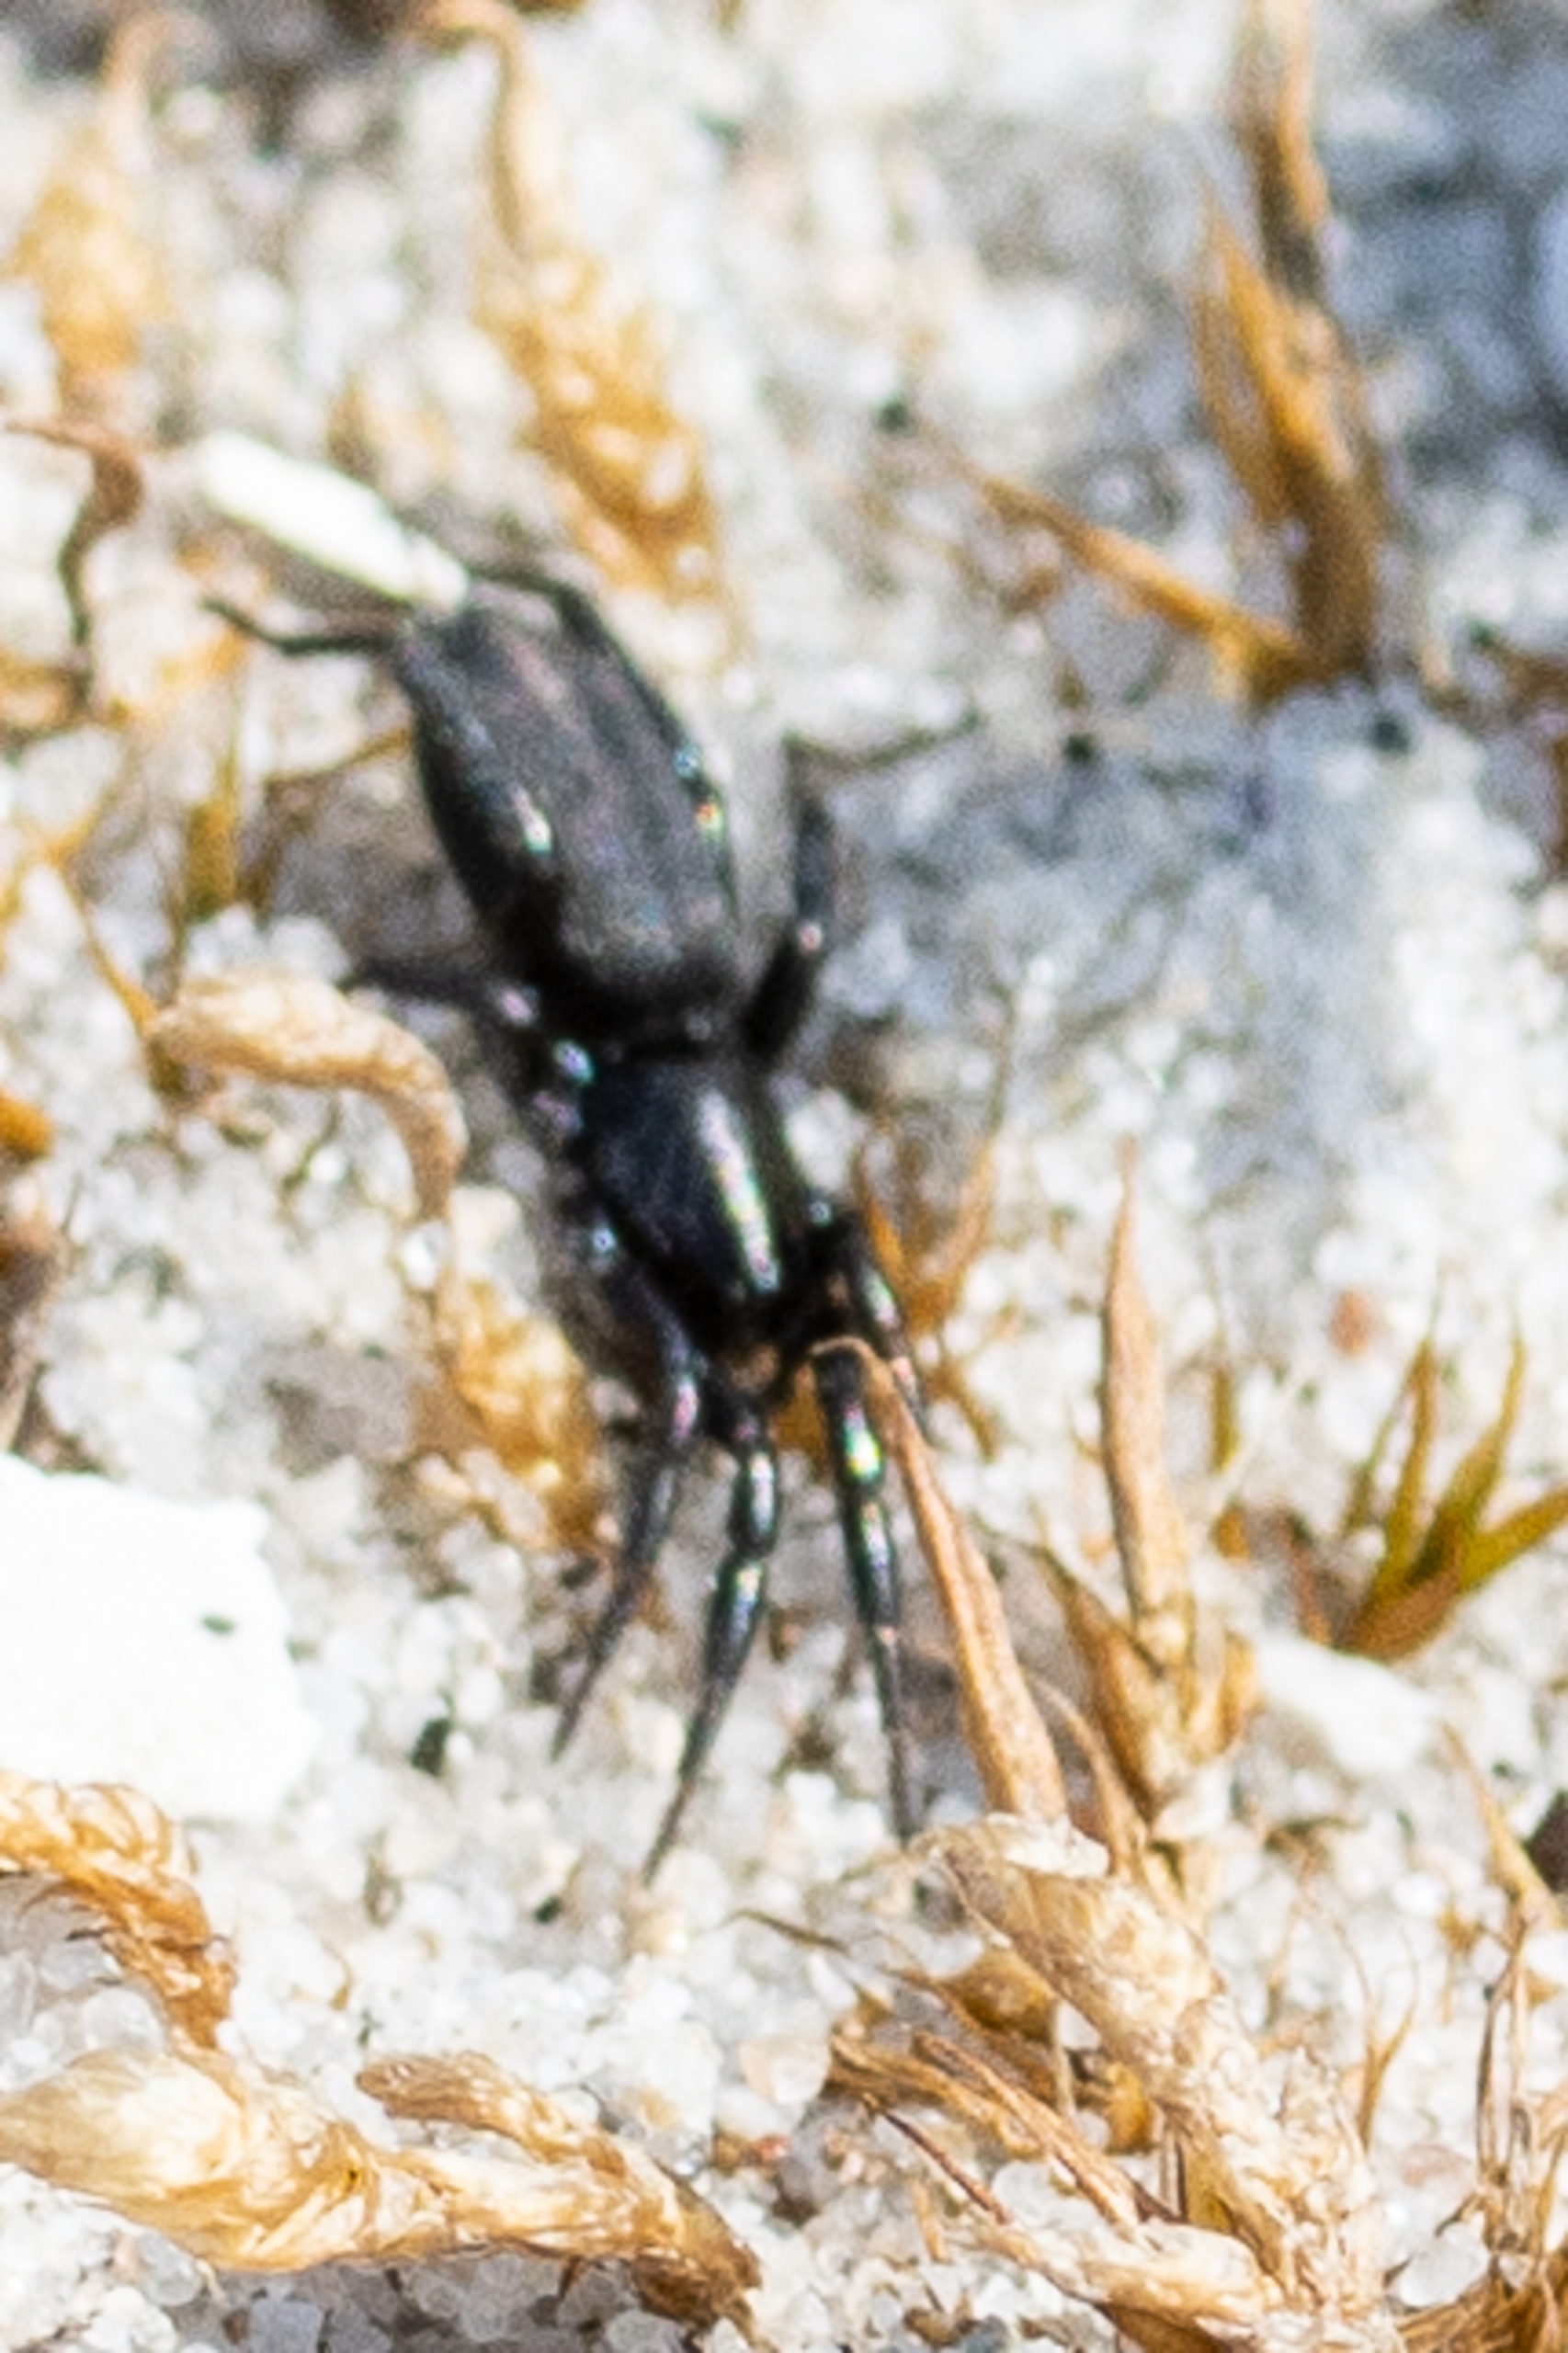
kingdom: Animalia
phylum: Arthropoda
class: Arachnida
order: Araneae
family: Gnaphosidae
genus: Zelotes
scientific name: Zelotes
